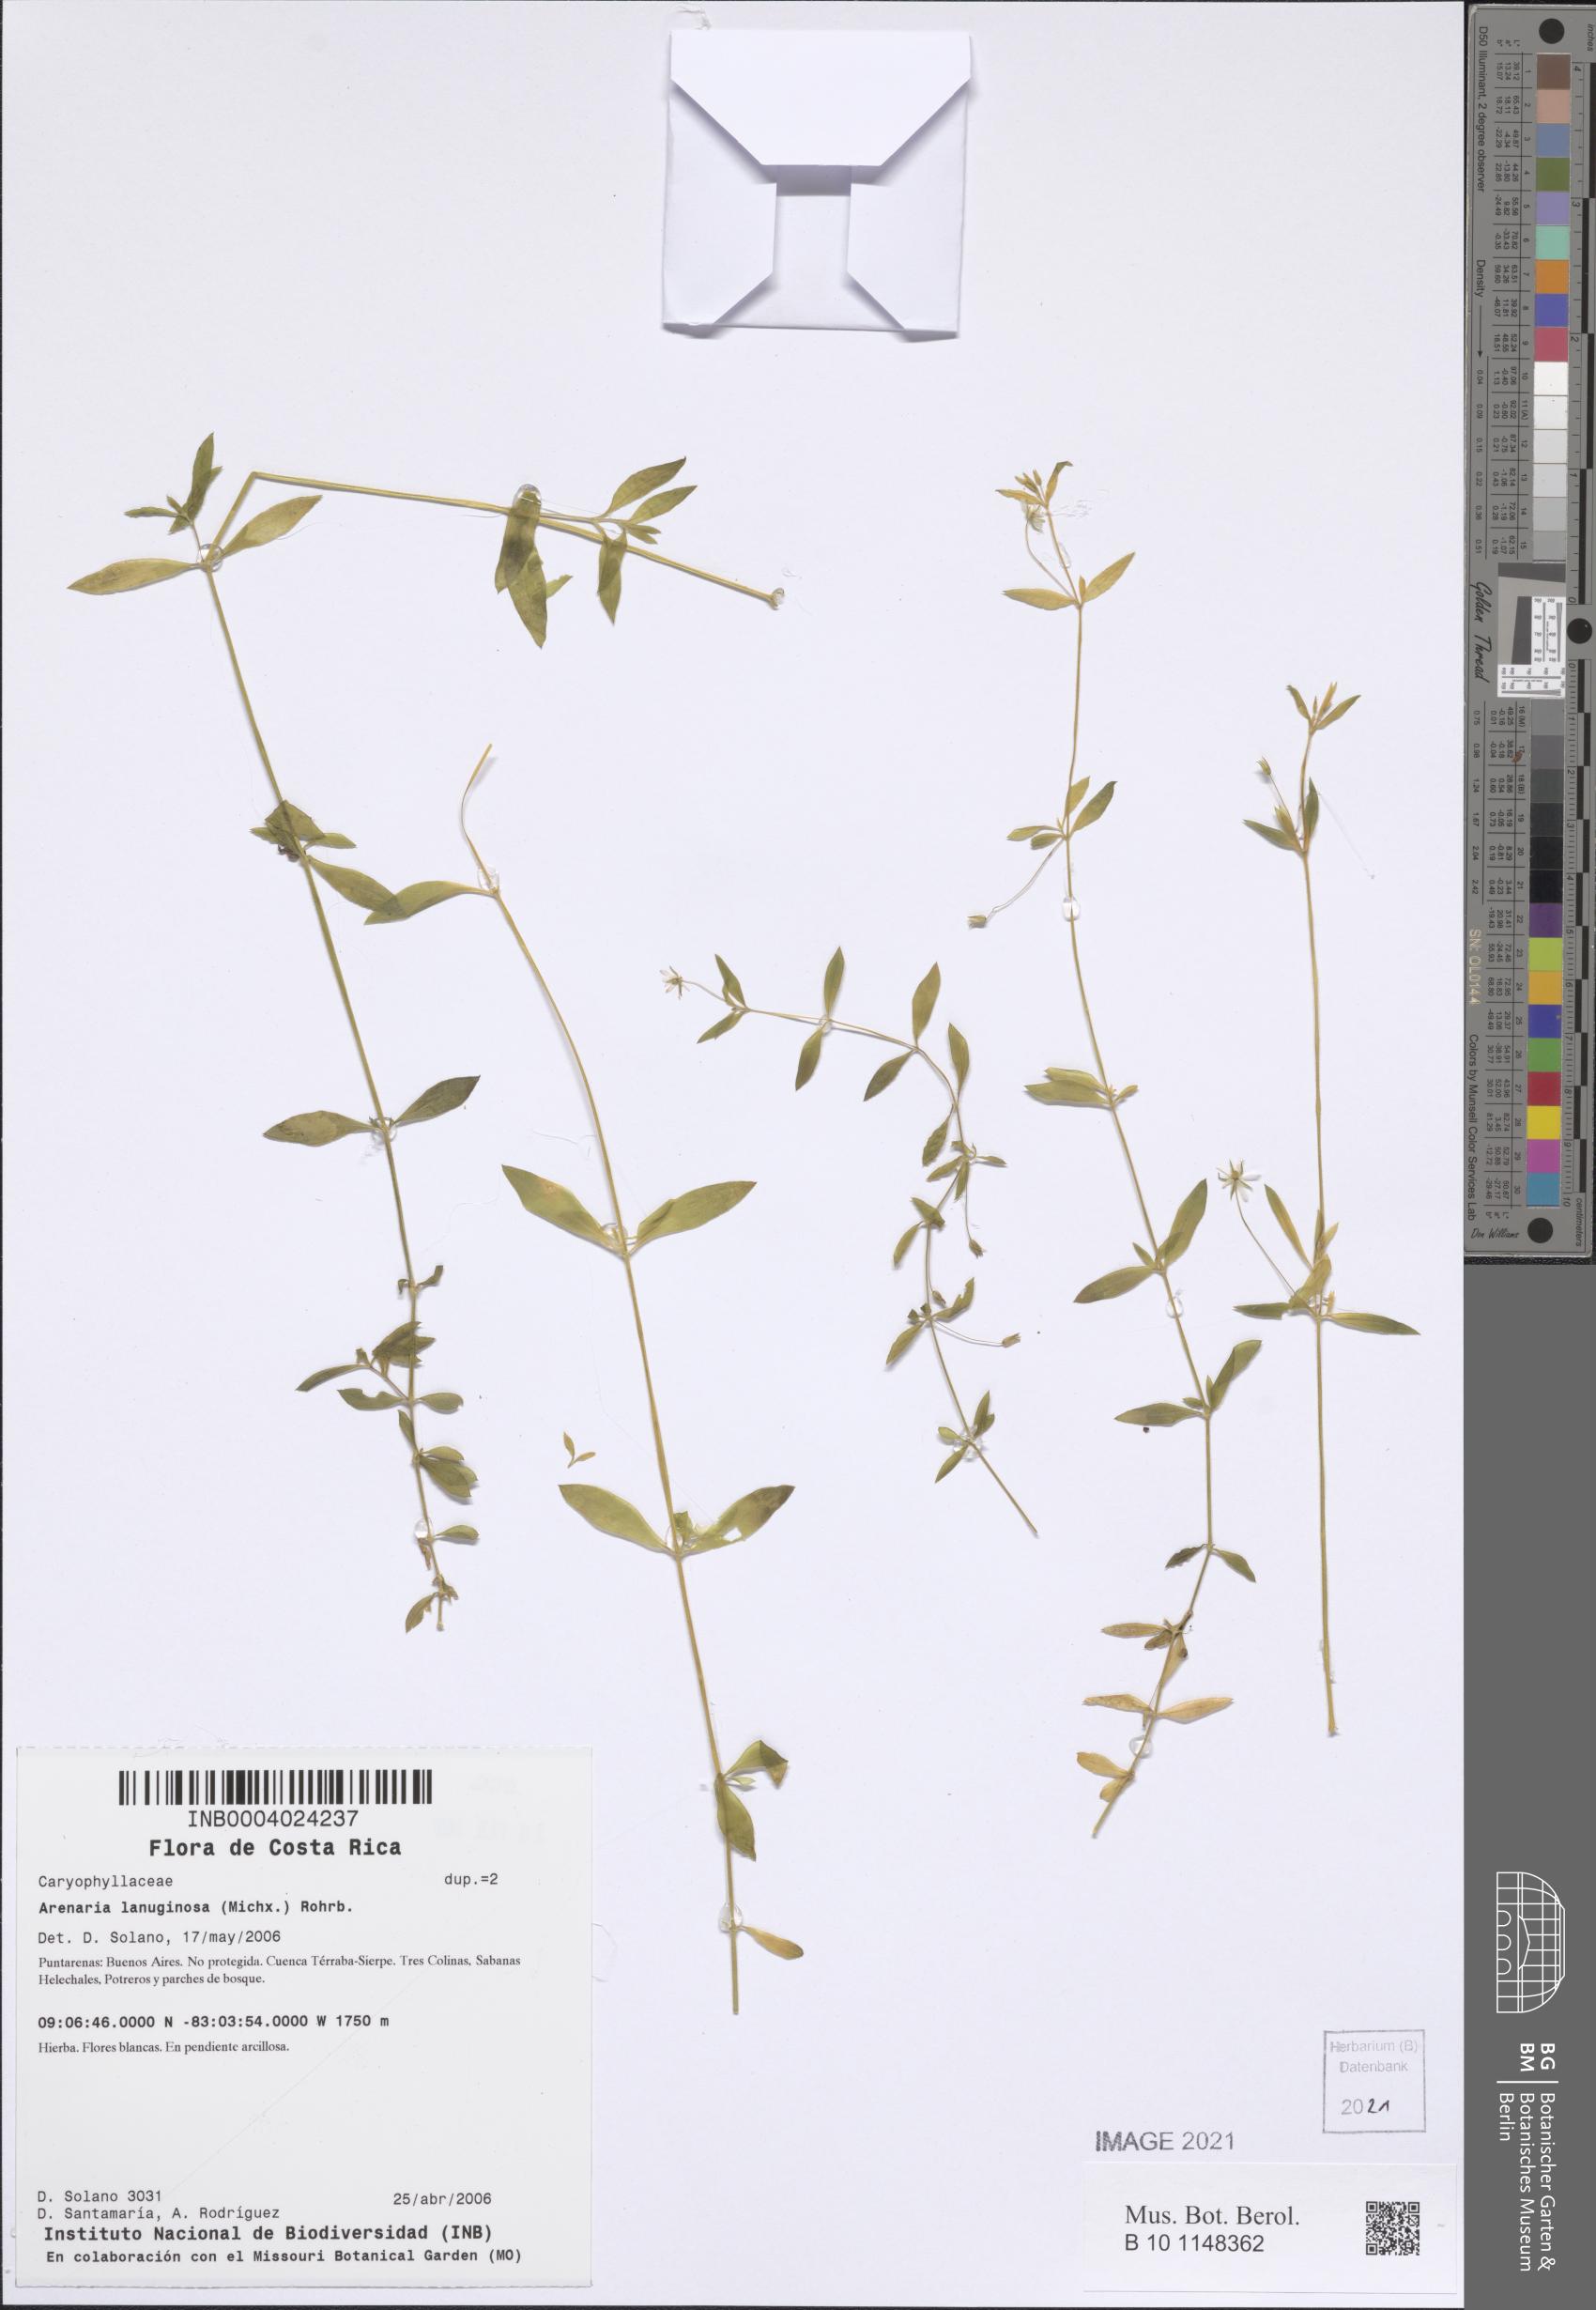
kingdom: Plantae
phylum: Tracheophyta
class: Magnoliopsida
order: Caryophyllales
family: Caryophyllaceae
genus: Arenaria
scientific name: Arenaria lanuginosa
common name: Spread sandwort
